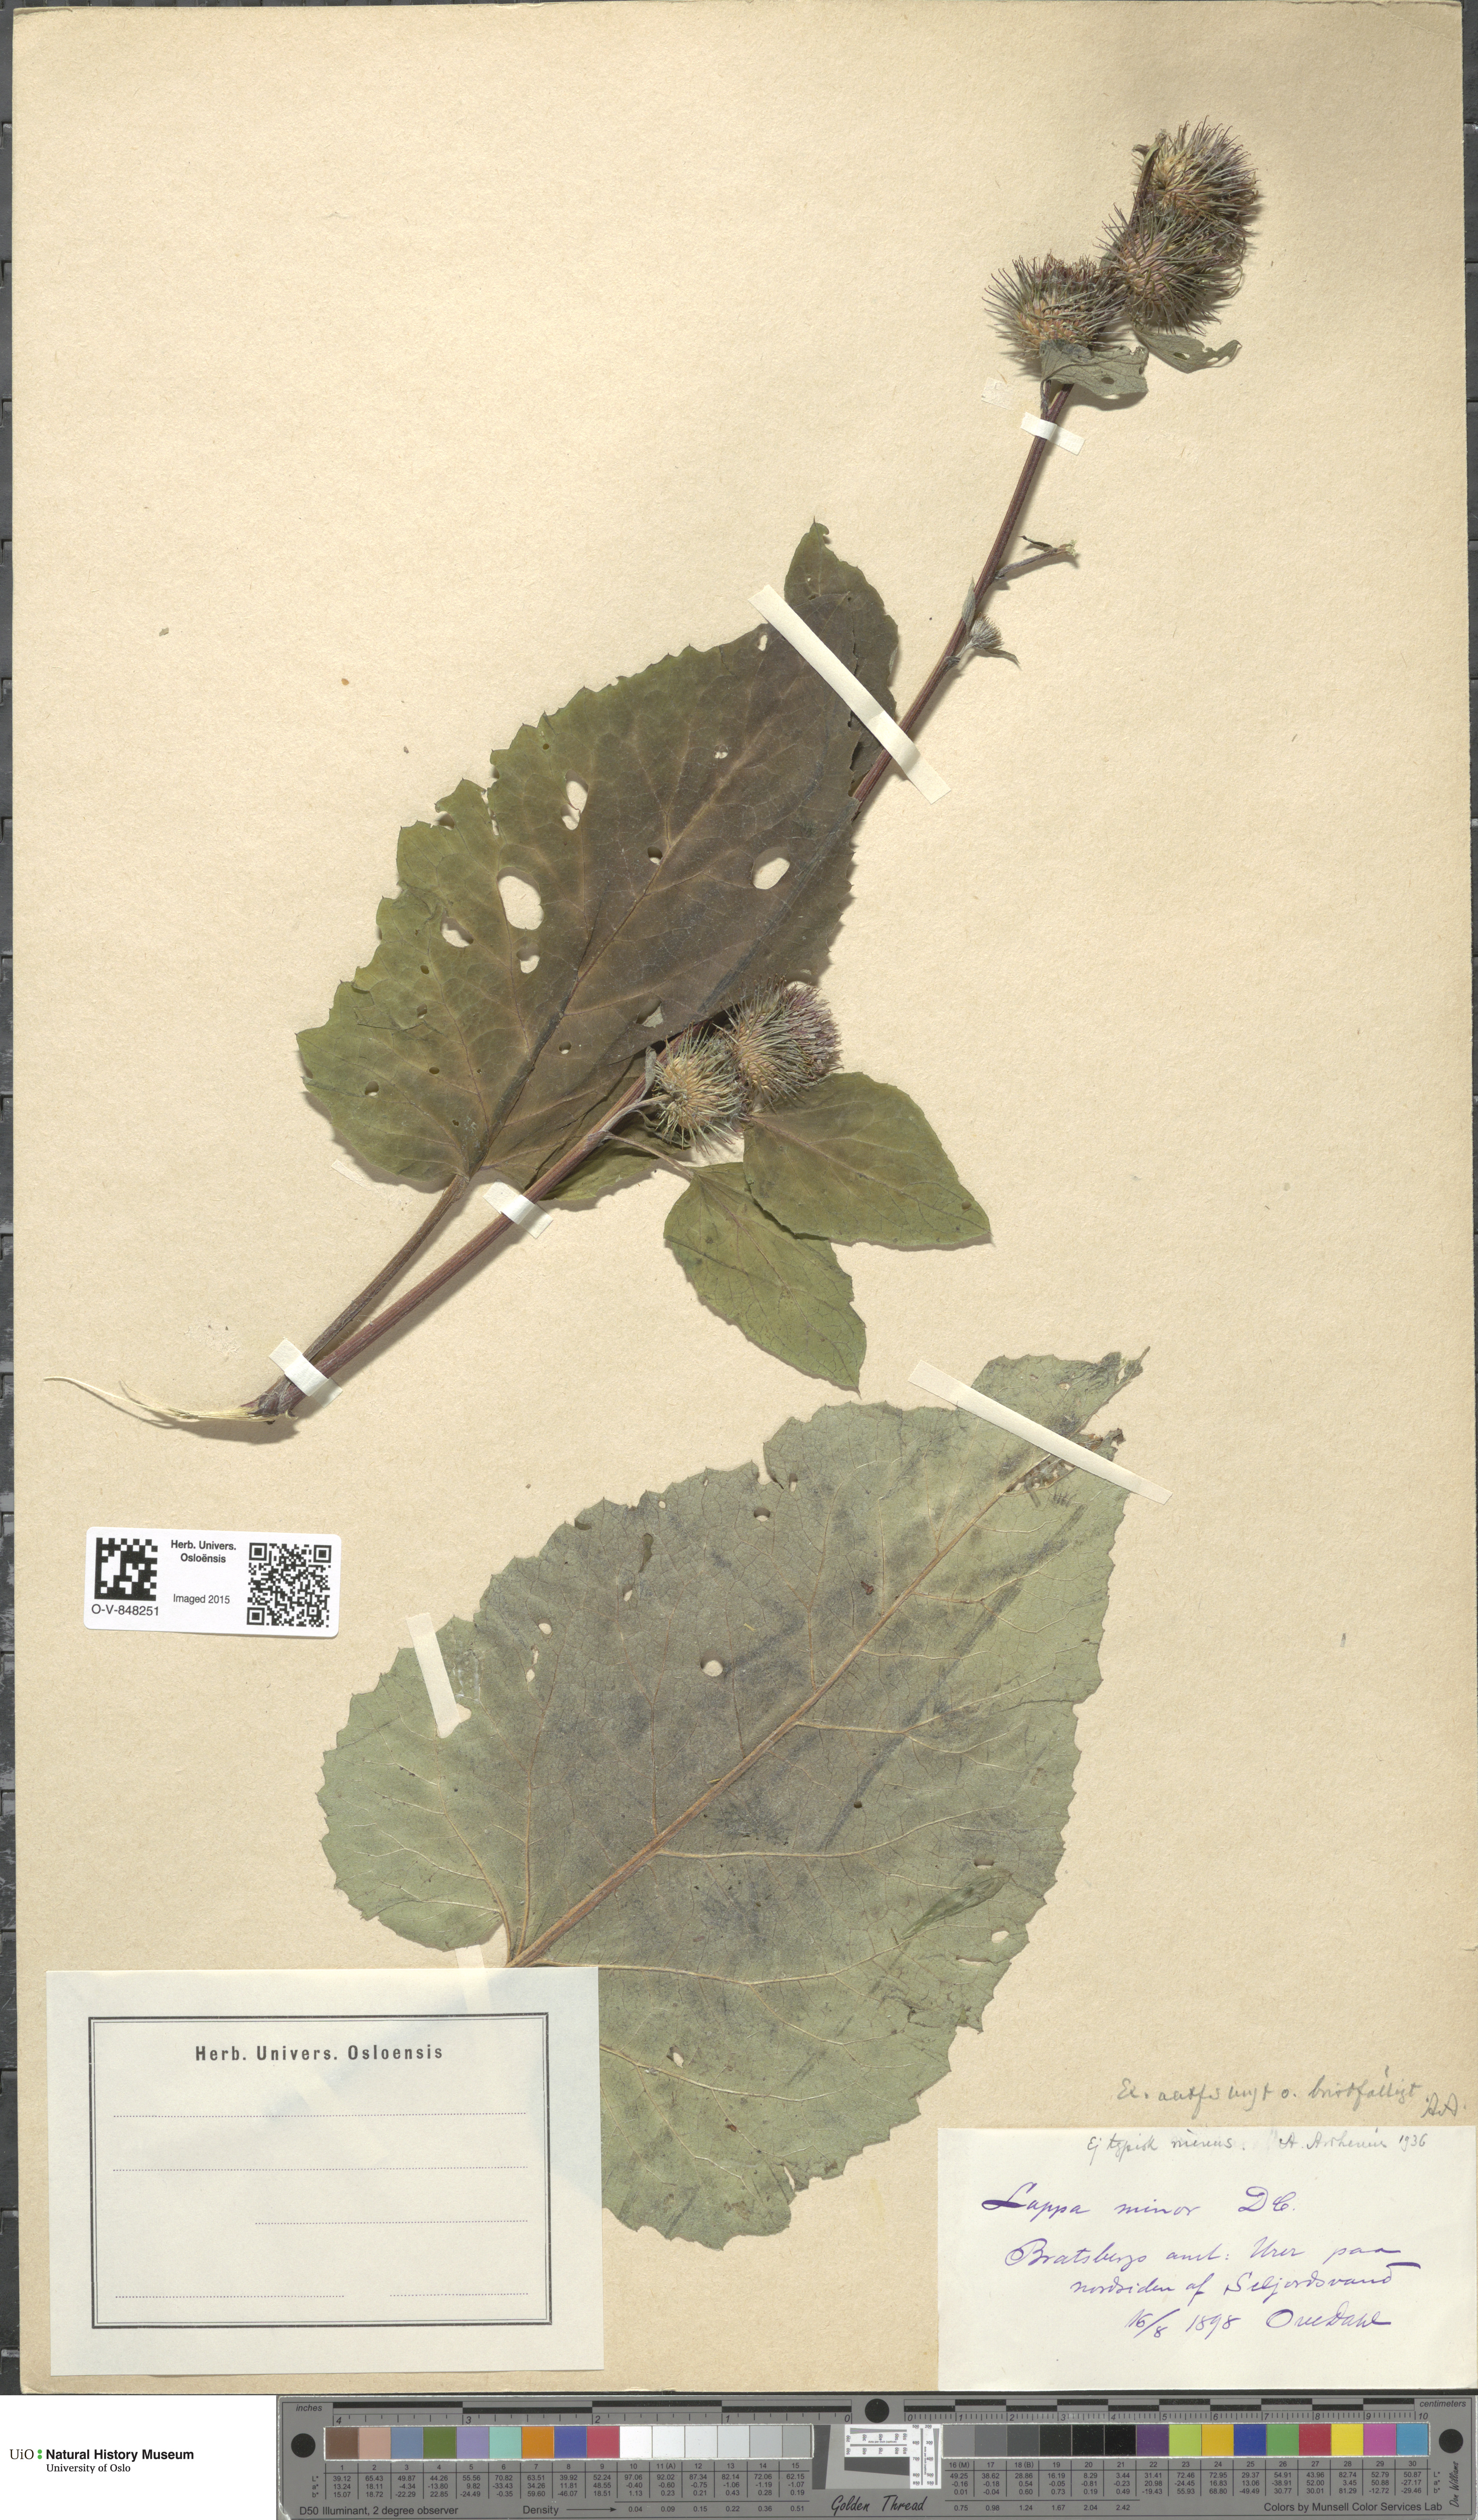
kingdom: Plantae
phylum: Tracheophyta
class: Magnoliopsida
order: Asterales
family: Asteraceae
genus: Arctium
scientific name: Arctium minus
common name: Lesser burdock
